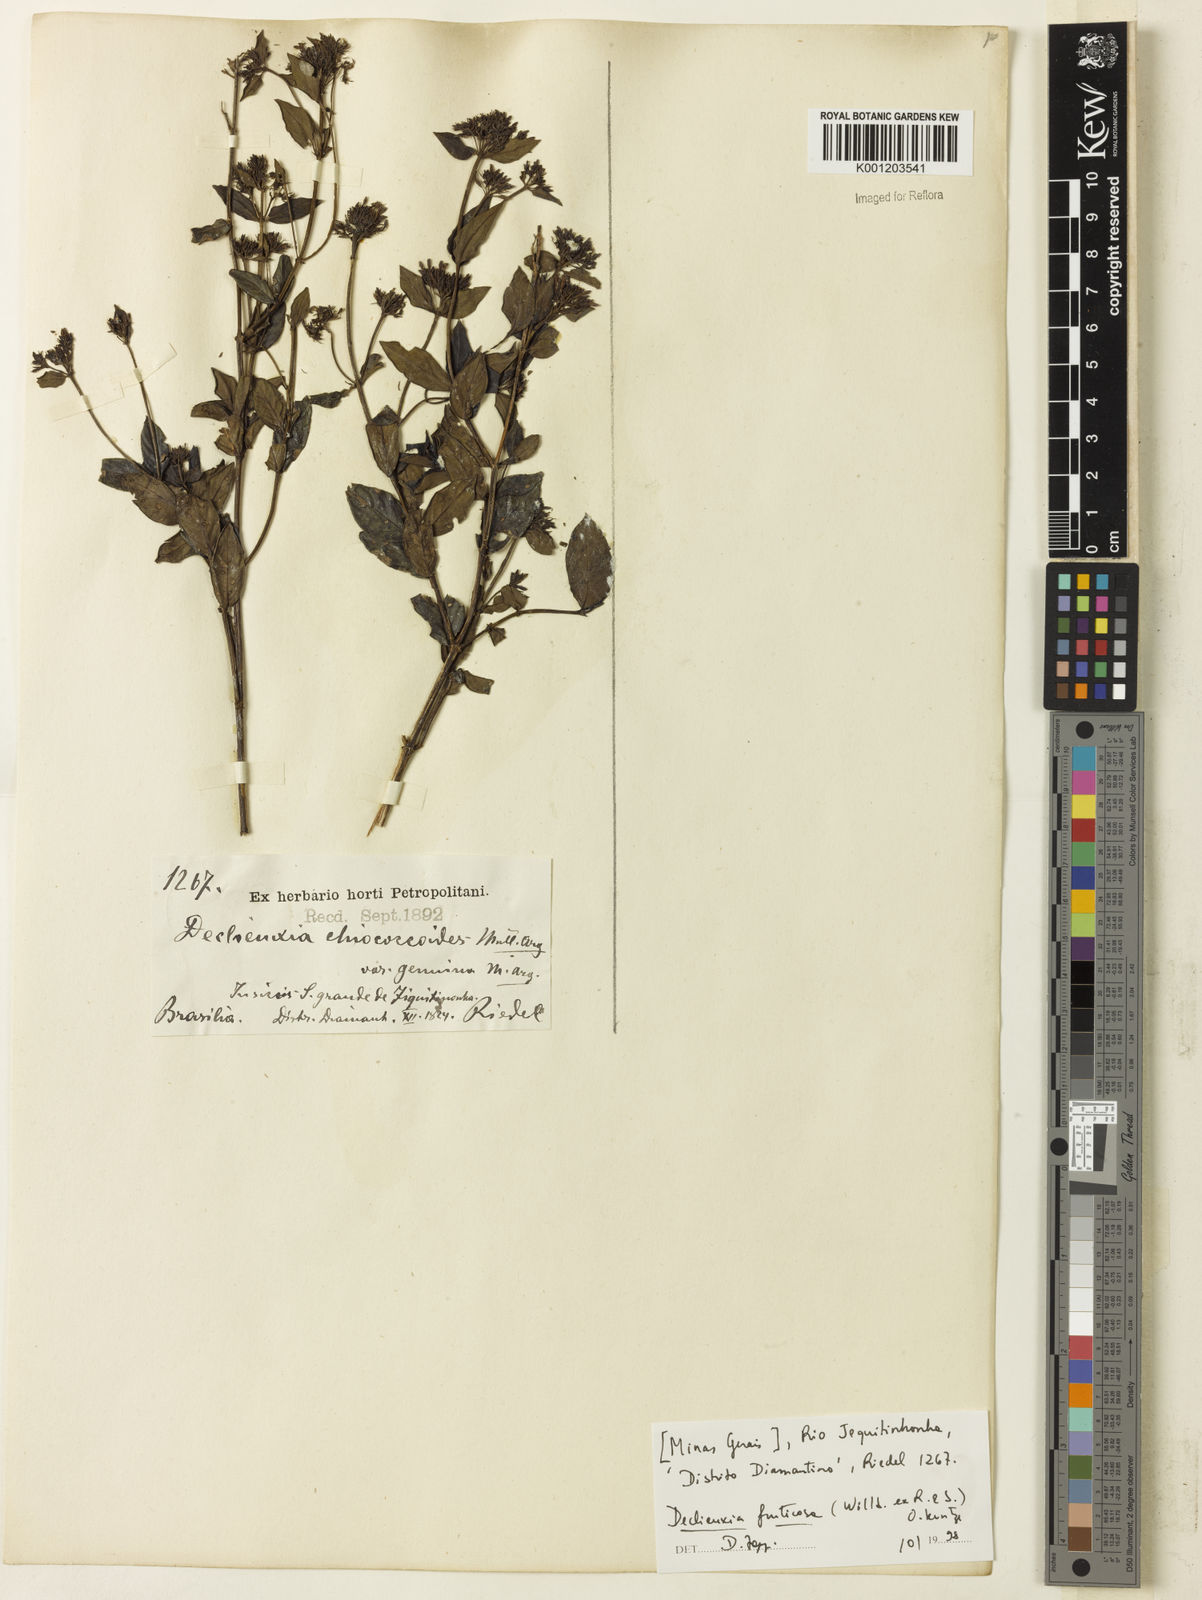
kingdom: Plantae
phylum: Tracheophyta
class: Magnoliopsida
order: Gentianales
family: Rubiaceae
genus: Declieuxia
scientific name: Declieuxia fruticosa
